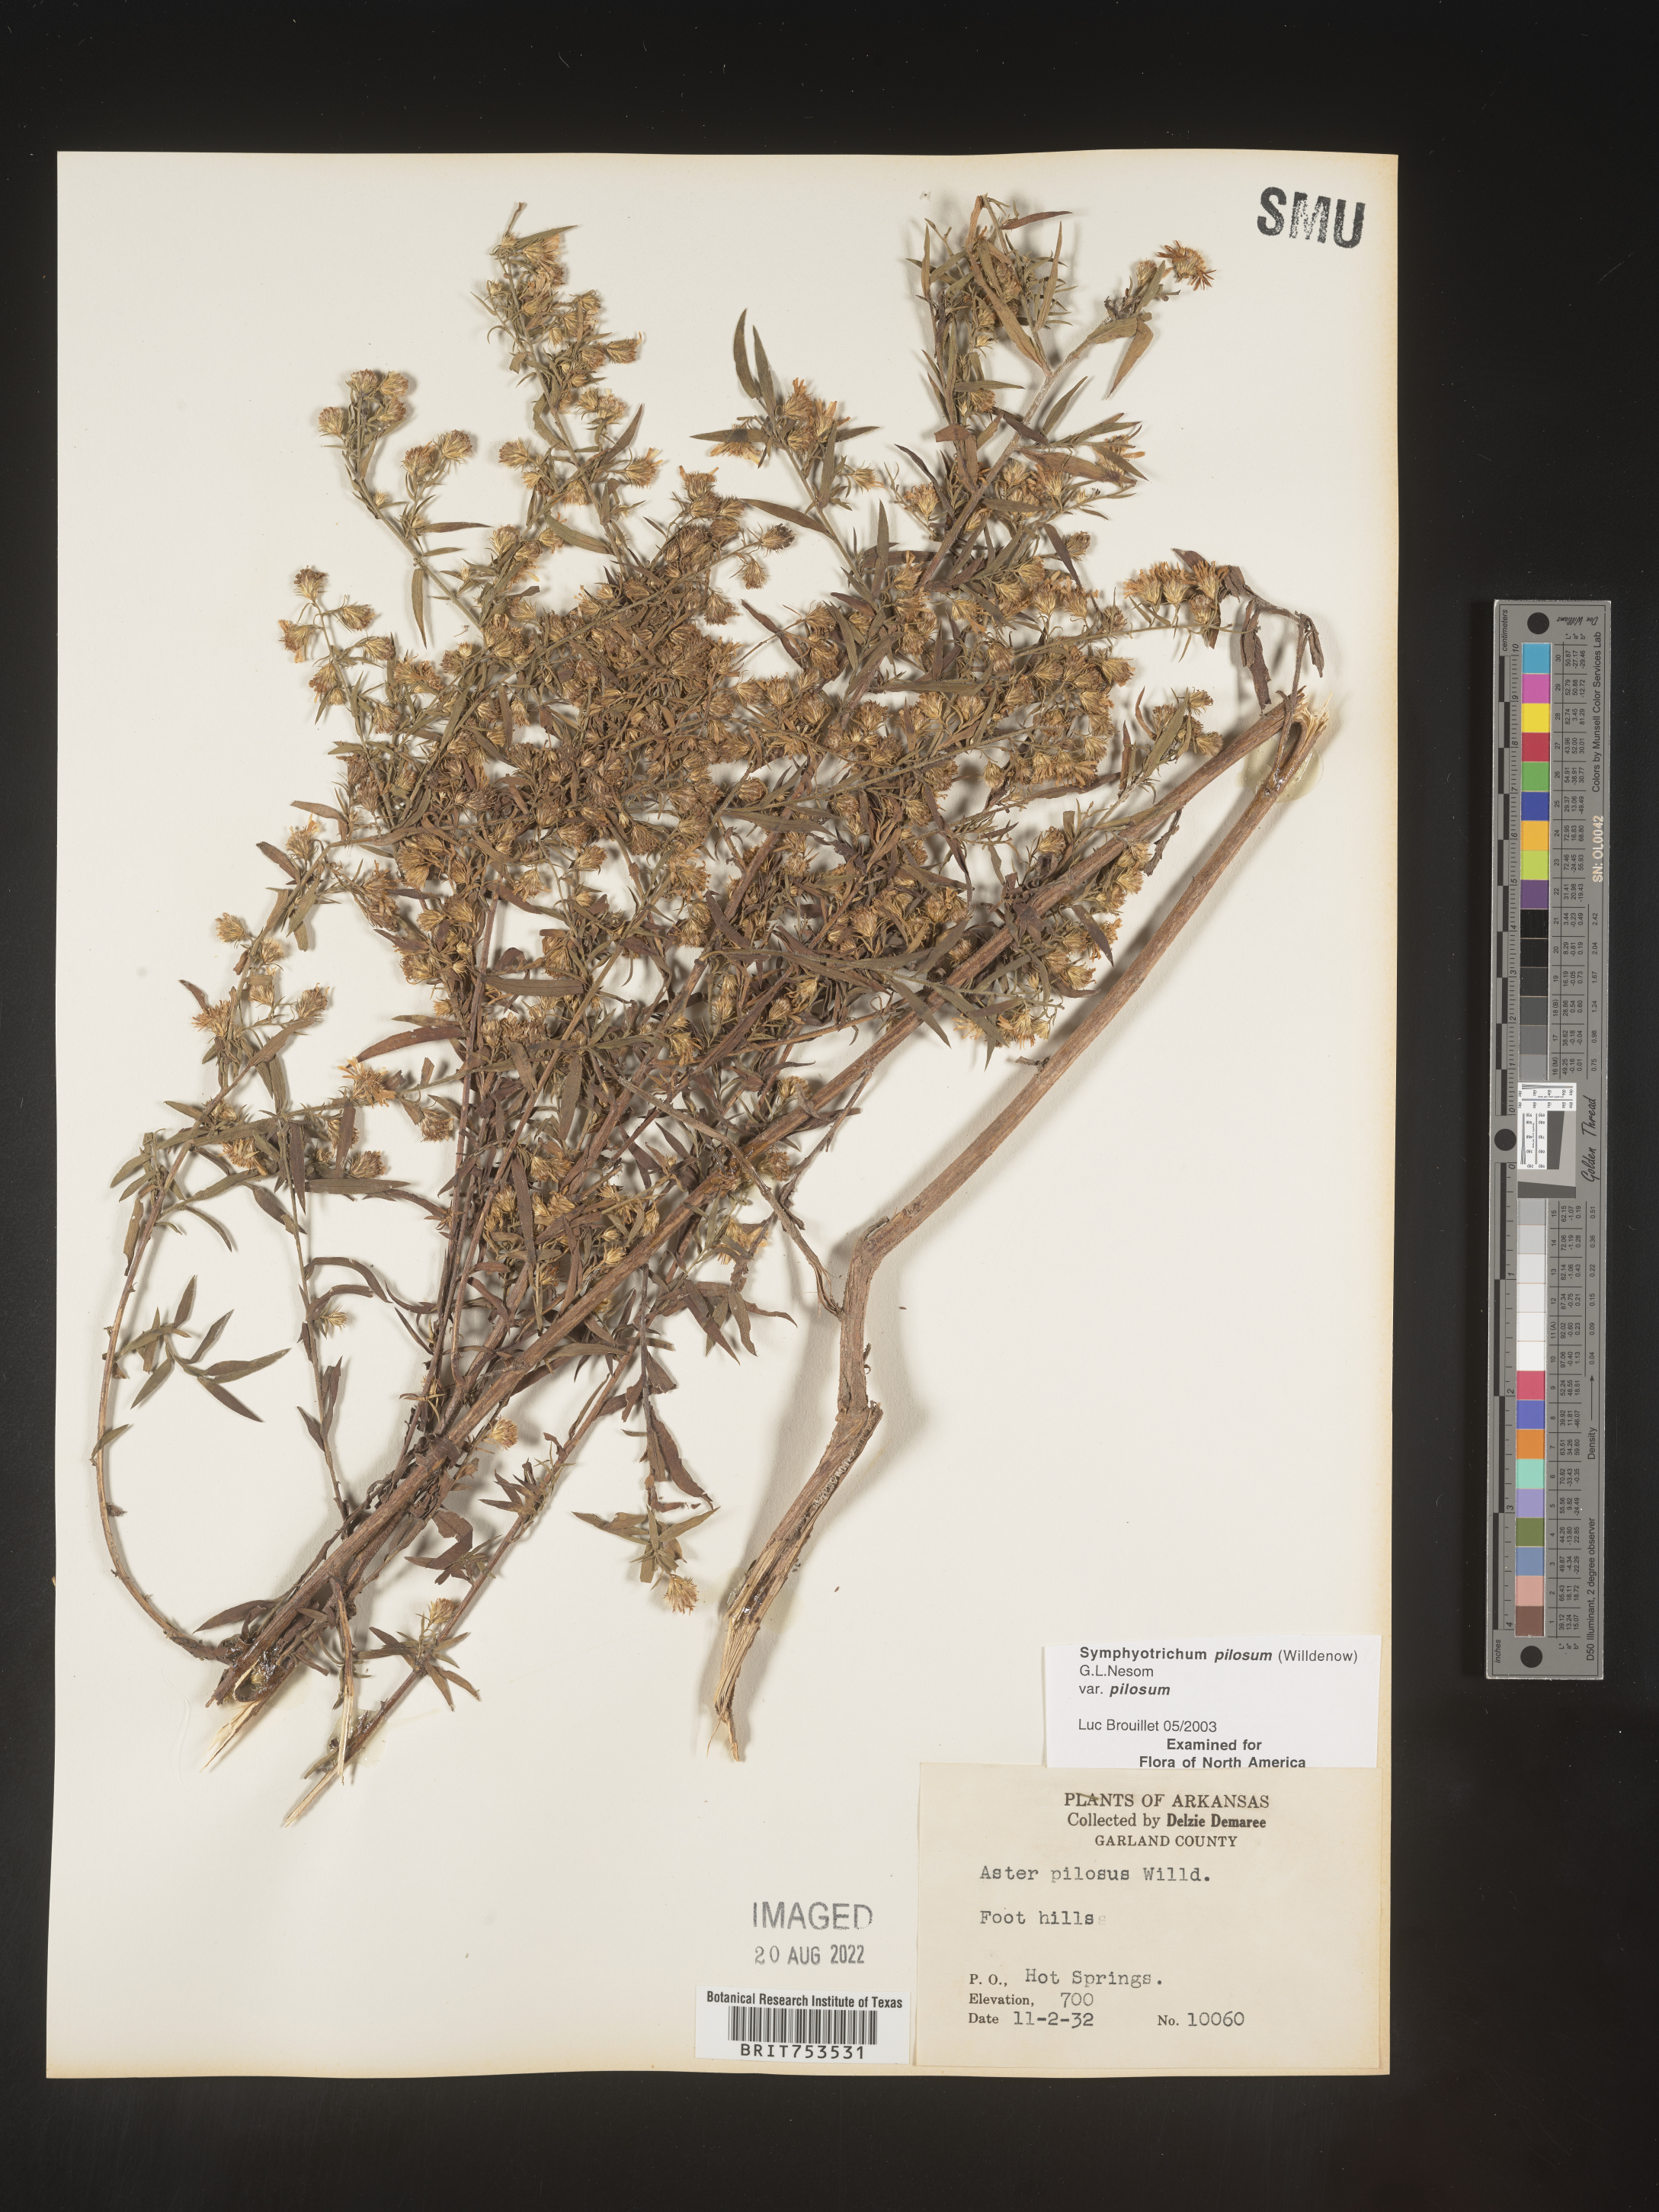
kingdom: Plantae
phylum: Tracheophyta
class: Magnoliopsida
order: Asterales
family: Asteraceae
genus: Symphyotrichum
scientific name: Symphyotrichum pilosum
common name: Awl aster
